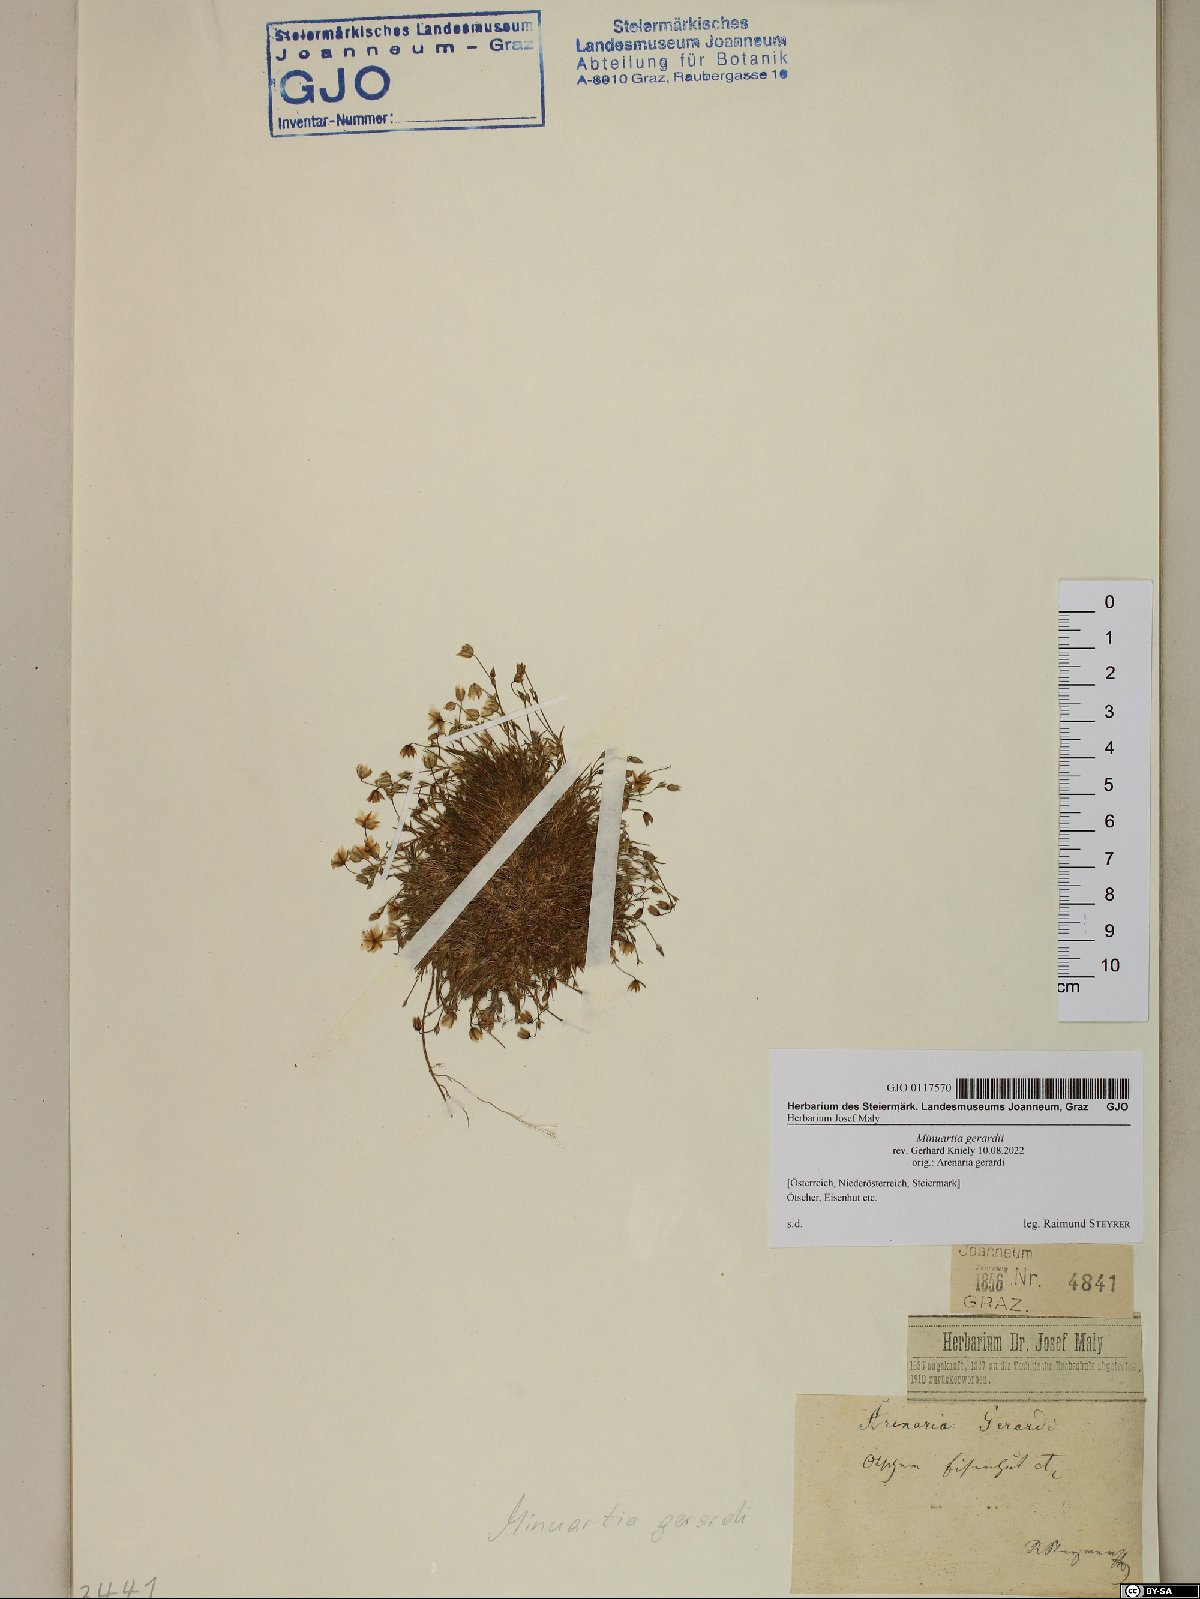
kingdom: Plantae
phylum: Tracheophyta
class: Magnoliopsida
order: Caryophyllales
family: Caryophyllaceae
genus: Sabulina
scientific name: Sabulina verna
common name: Spring sandwort
